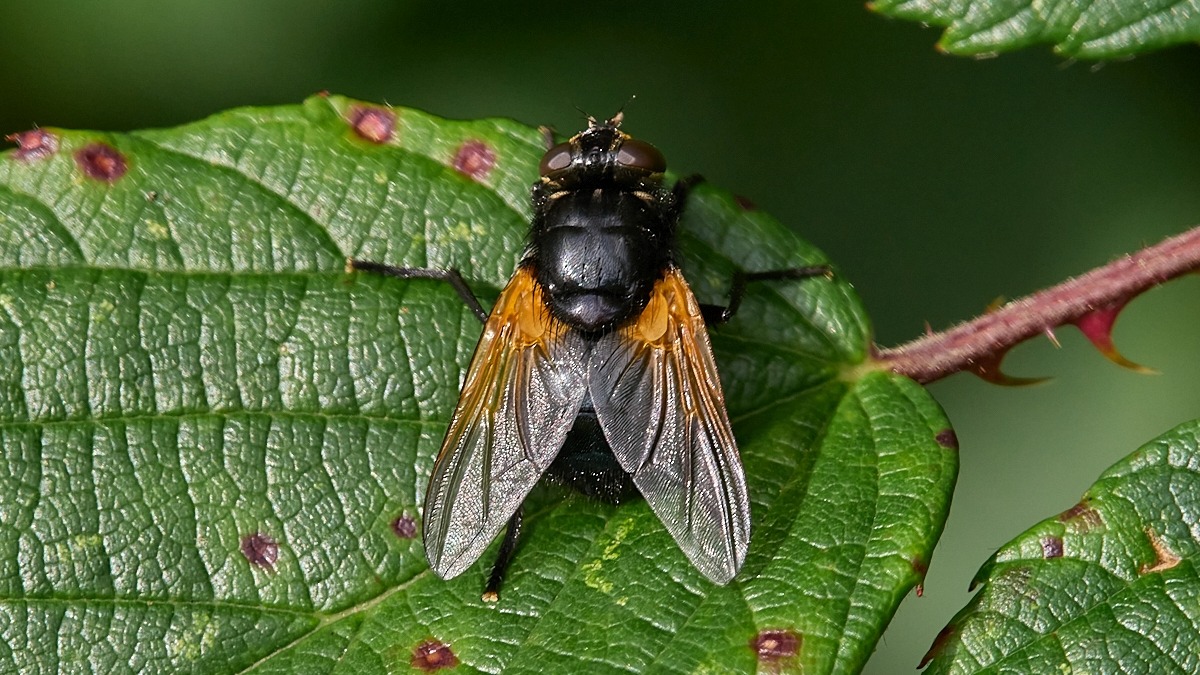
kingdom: Animalia
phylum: Arthropoda
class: Insecta
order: Diptera
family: Muscidae
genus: Mesembrina
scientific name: Mesembrina meridiana
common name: Gulvinget flue
